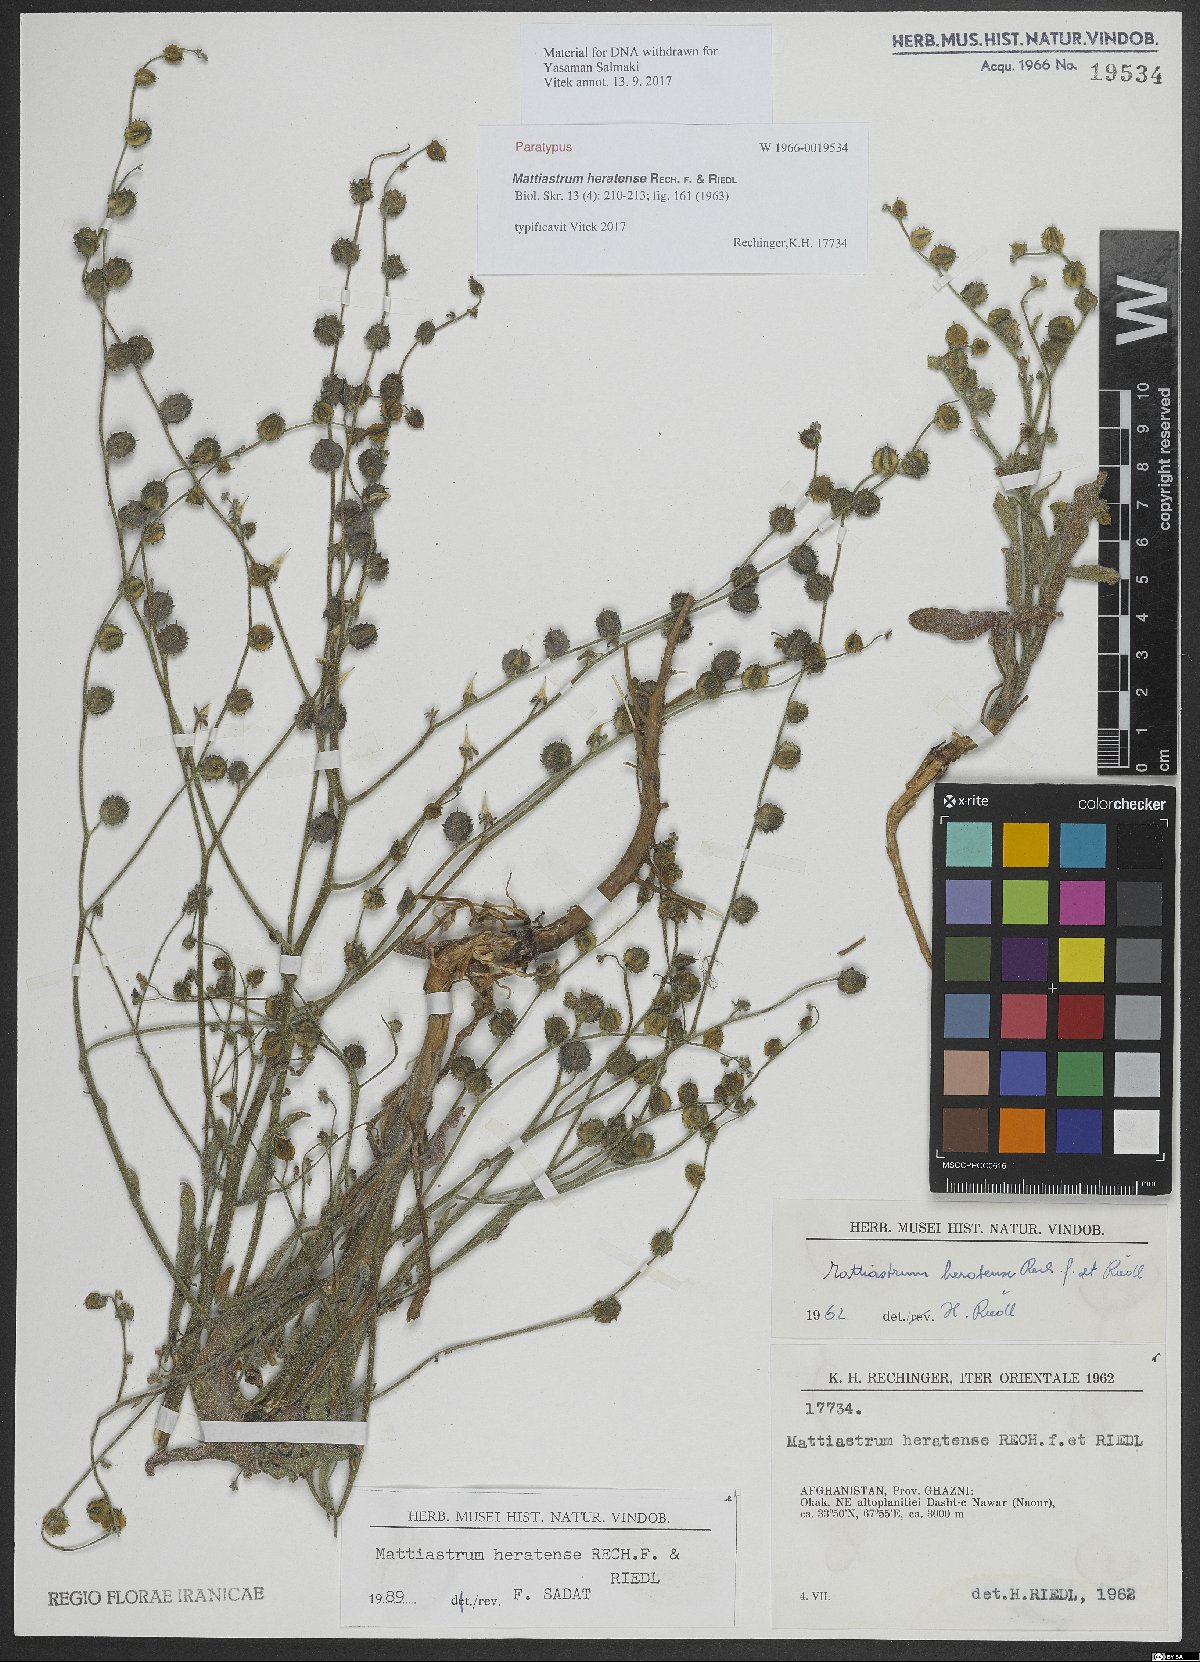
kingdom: Plantae
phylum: Tracheophyta
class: Magnoliopsida
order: Boraginales
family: Boraginaceae
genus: Paracaryum
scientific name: Paracaryum heratense
